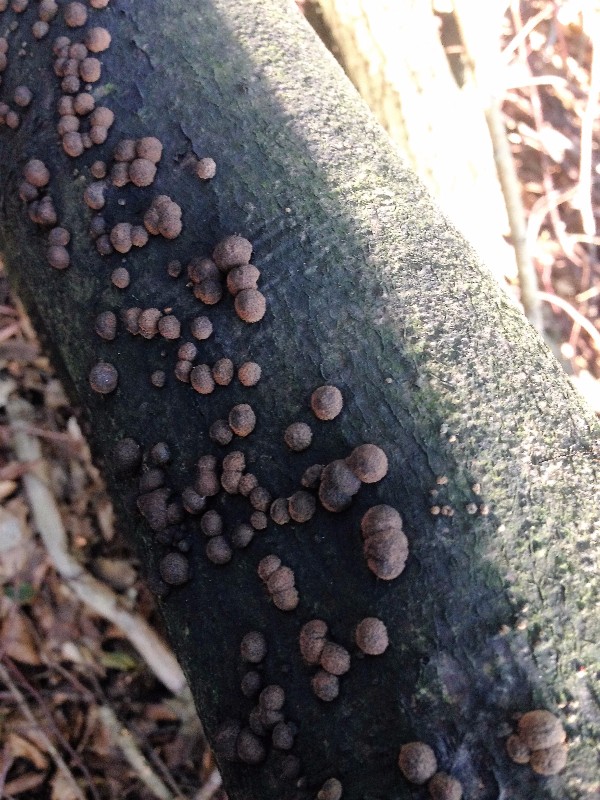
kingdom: Fungi
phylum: Ascomycota
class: Sordariomycetes
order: Xylariales
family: Hypoxylaceae
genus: Hypoxylon
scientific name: Hypoxylon fragiforme
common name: kuljordbær
